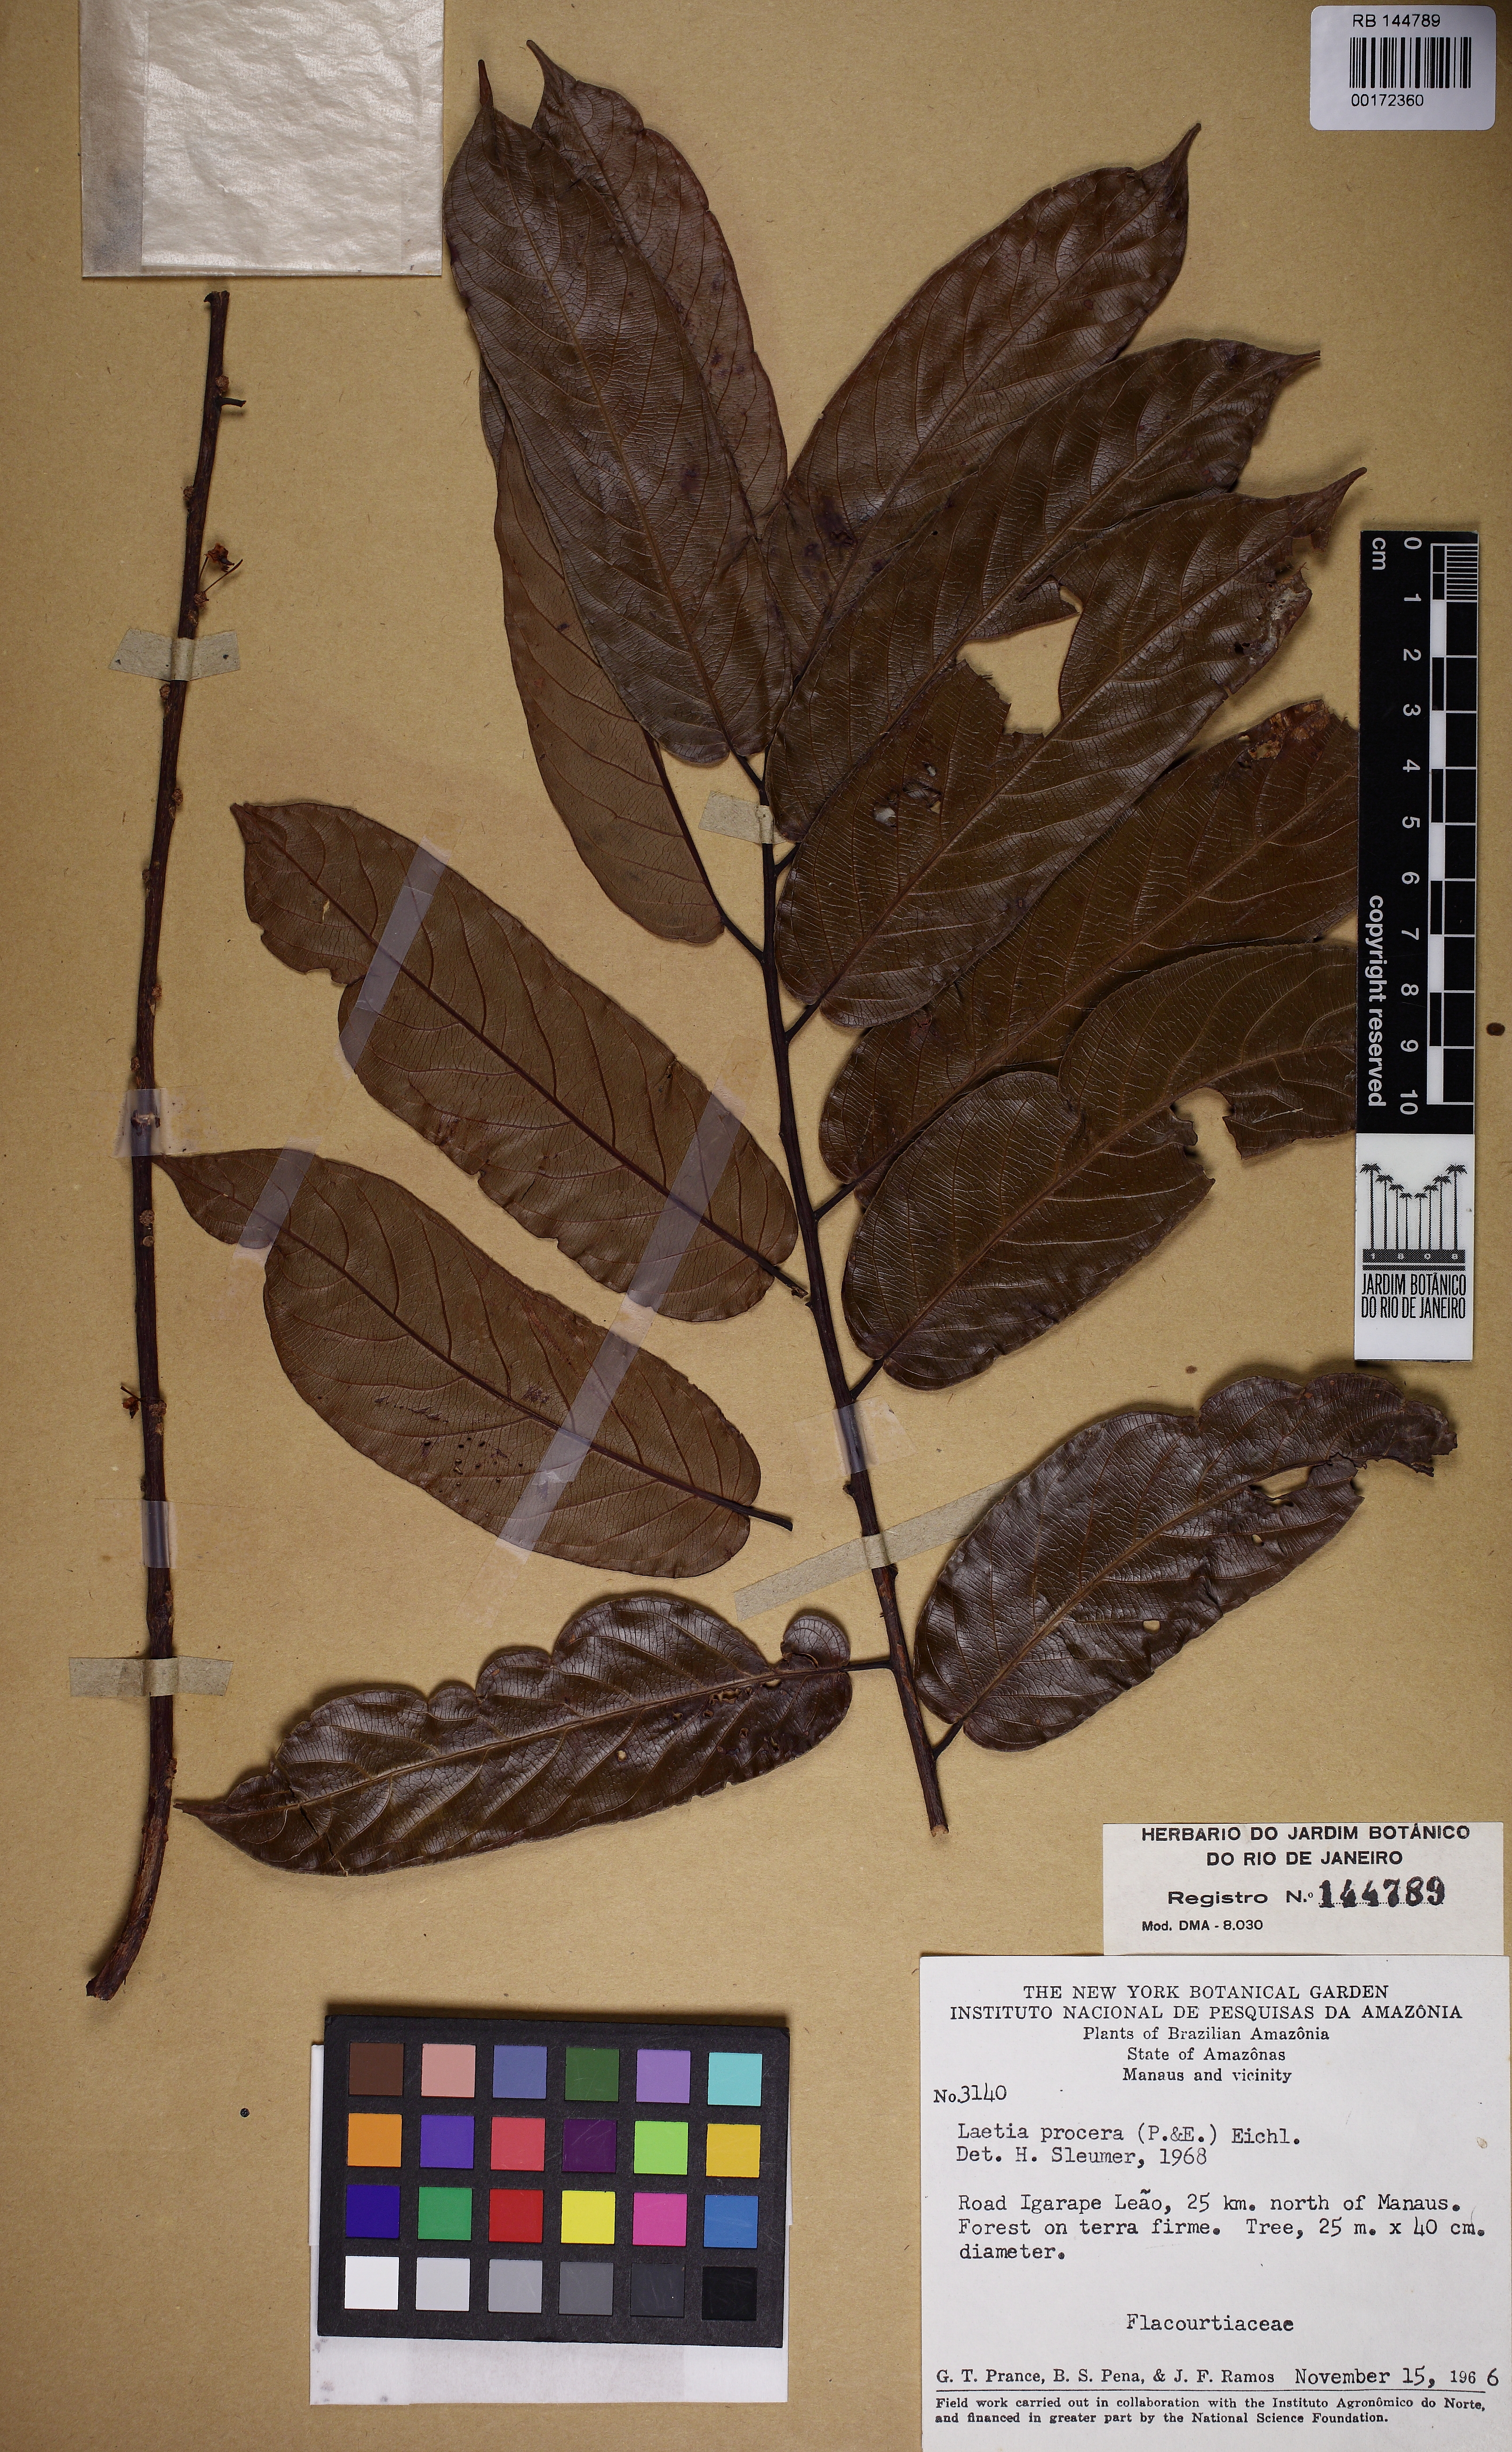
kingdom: Plantae
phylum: Tracheophyta
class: Magnoliopsida
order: Malpighiales
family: Salicaceae
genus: Casearia
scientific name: Casearia bicolor
